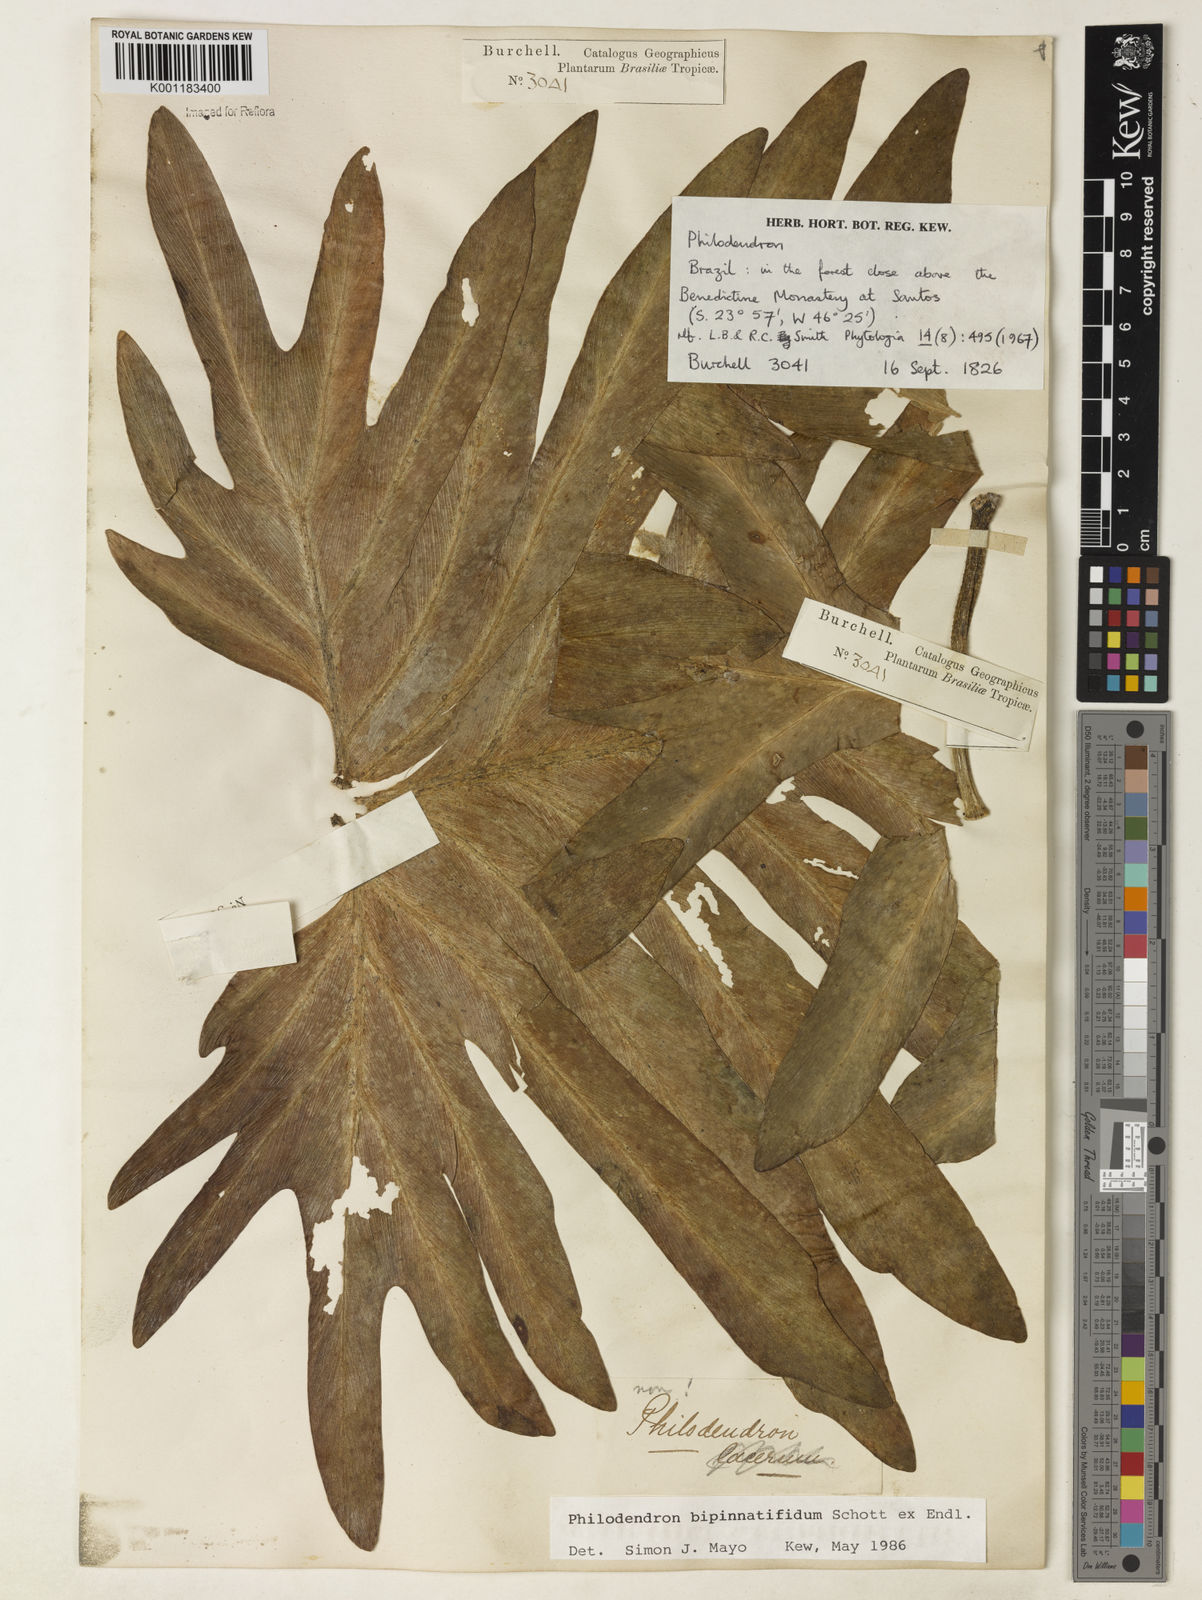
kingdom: Plantae
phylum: Tracheophyta
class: Liliopsida
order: Alismatales
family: Araceae
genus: Philodendron
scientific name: Philodendron
